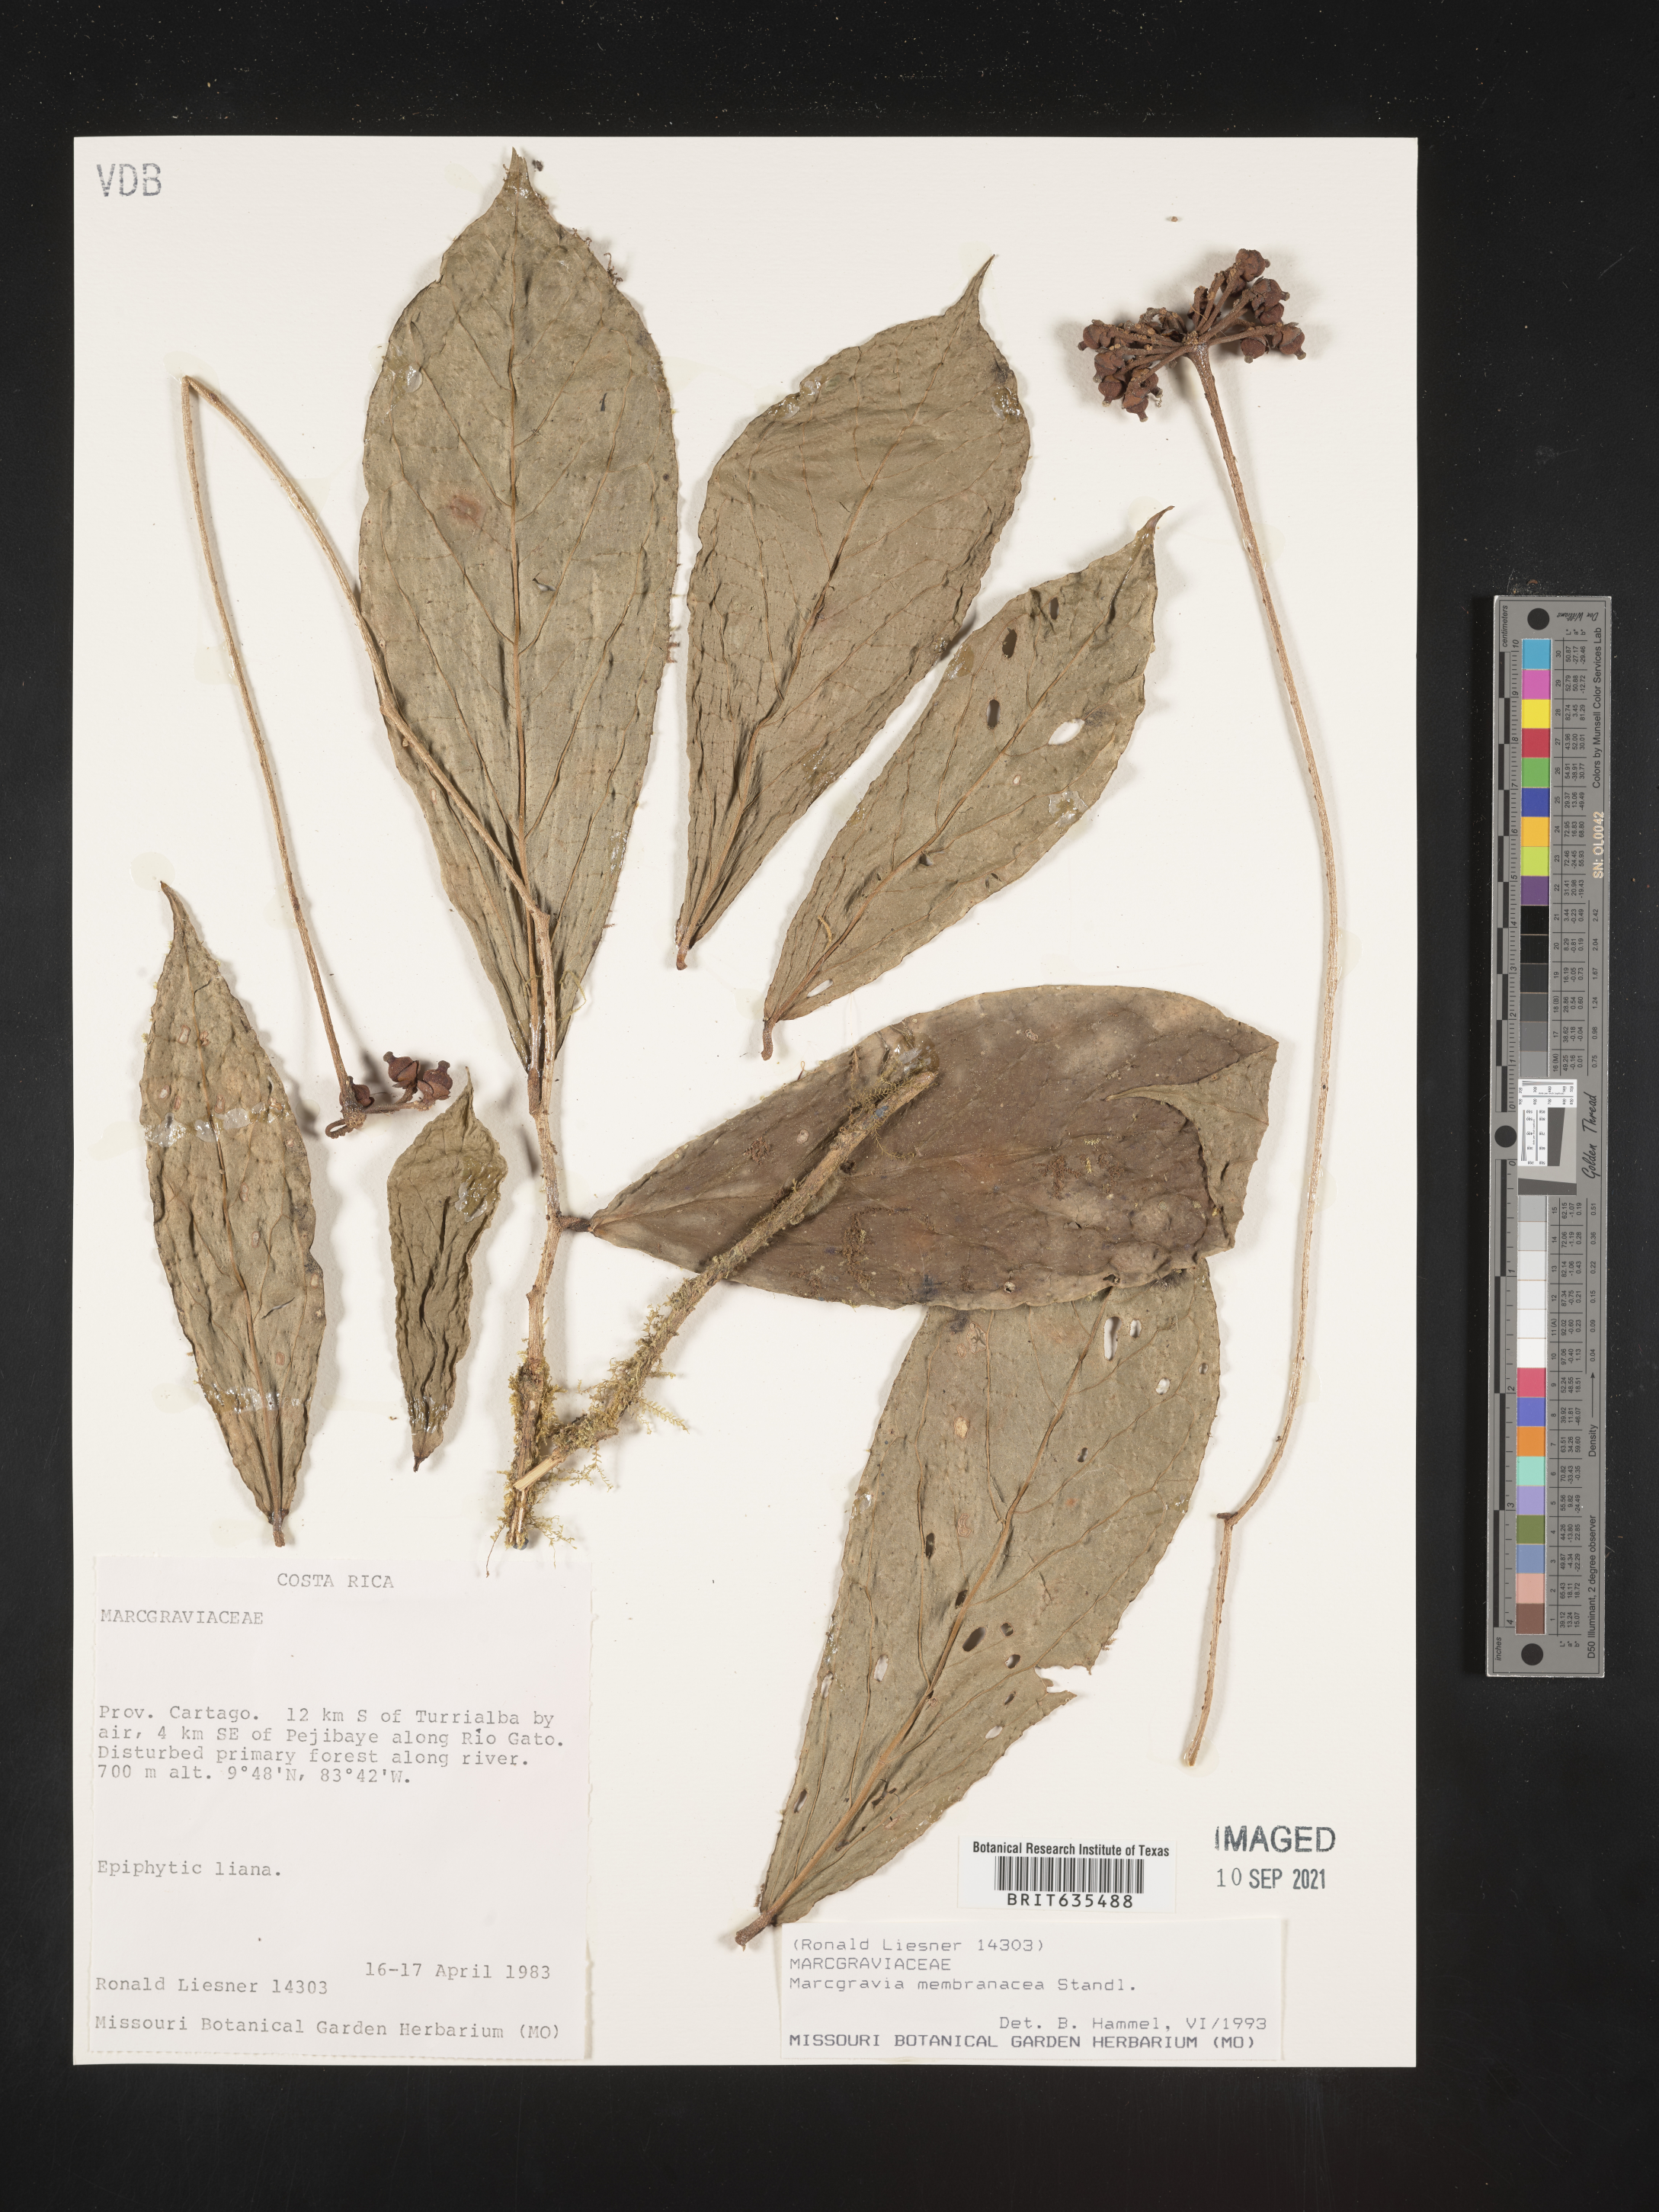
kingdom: Plantae
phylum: Tracheophyta
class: Magnoliopsida
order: Ericales
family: Marcgraviaceae
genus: Marcgravia
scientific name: Marcgravia
